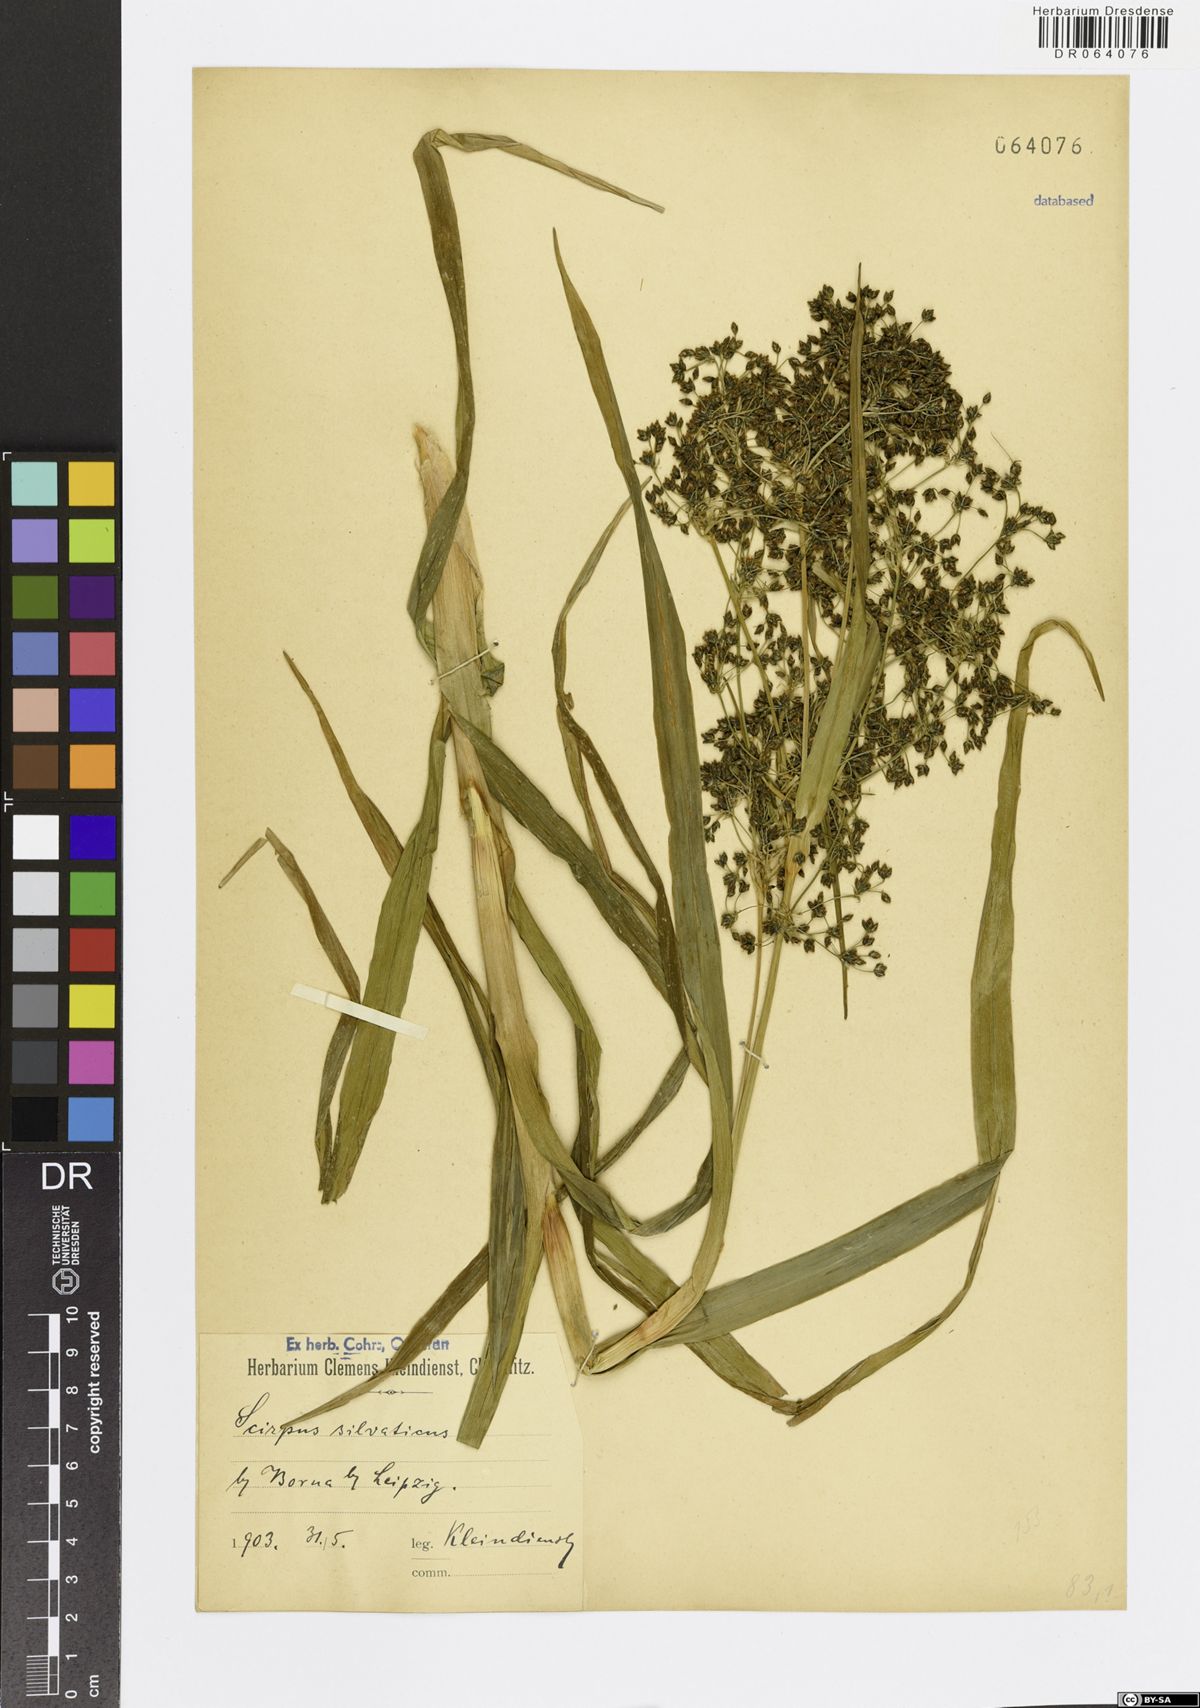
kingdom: Plantae
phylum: Tracheophyta
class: Liliopsida
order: Poales
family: Cyperaceae
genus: Scirpus
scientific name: Scirpus sylvaticus
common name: Wood club-rush
